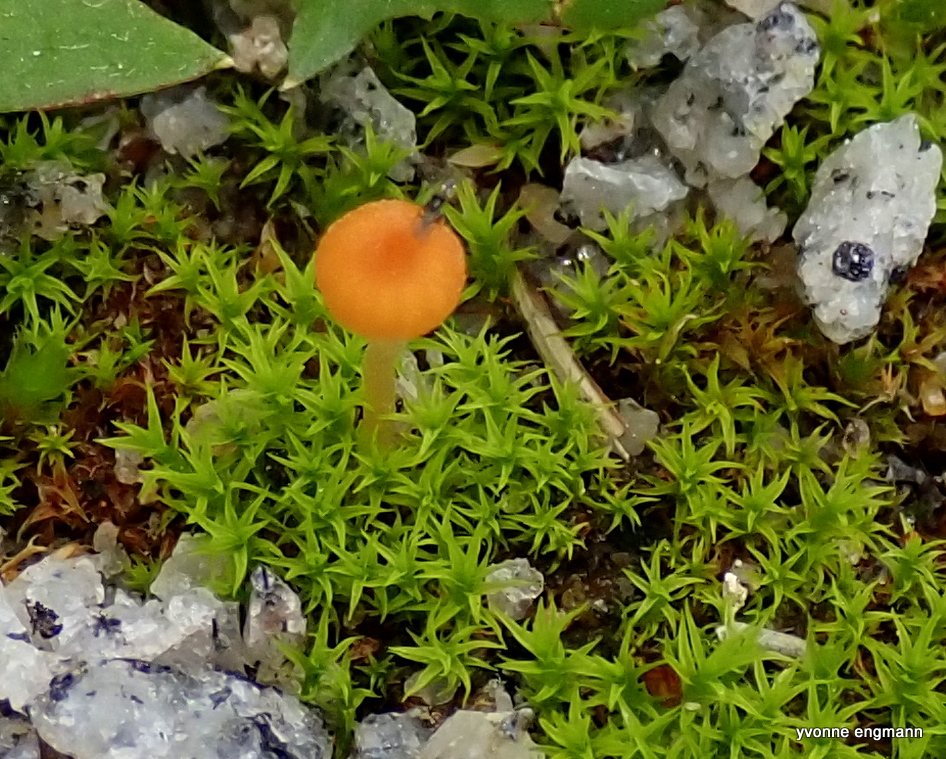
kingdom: Fungi
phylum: Basidiomycota
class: Agaricomycetes
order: Hymenochaetales
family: Rickenellaceae
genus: Rickenella
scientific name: Rickenella fibula
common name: orange mosnavlehat
